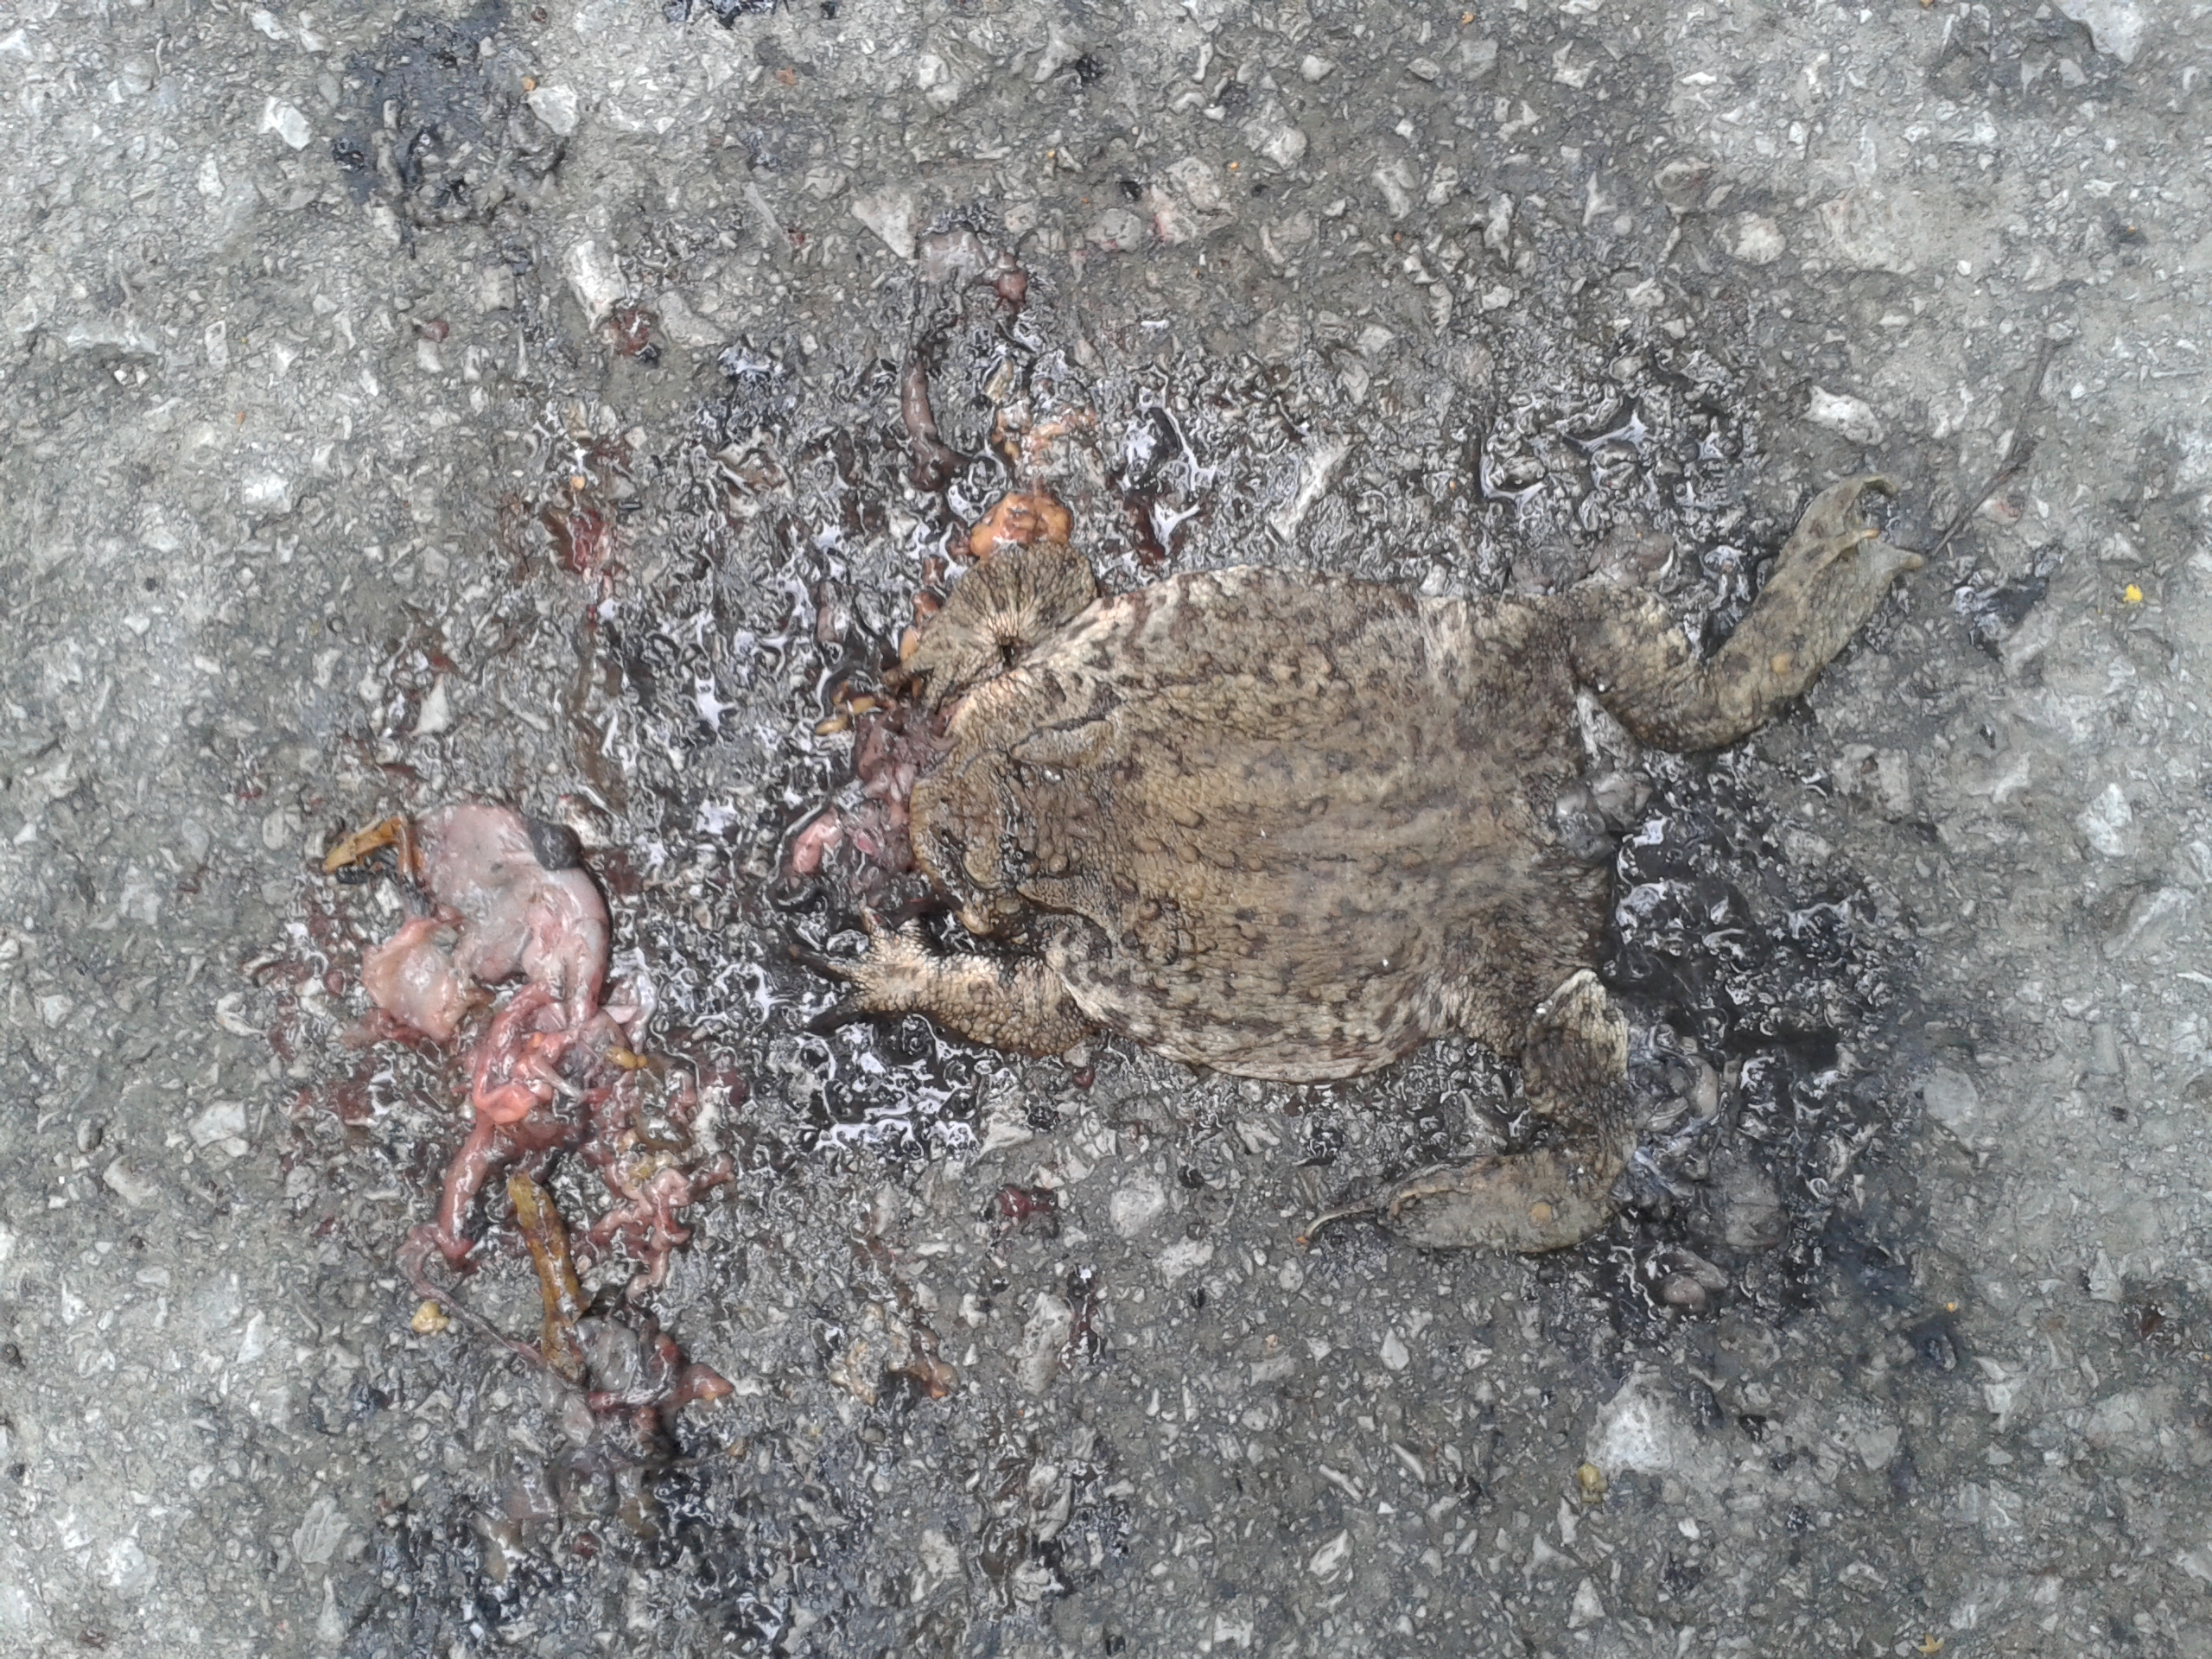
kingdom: Animalia
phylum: Chordata
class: Amphibia
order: Anura
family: Bufonidae
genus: Bufo
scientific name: Bufo bufo
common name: Common toad
